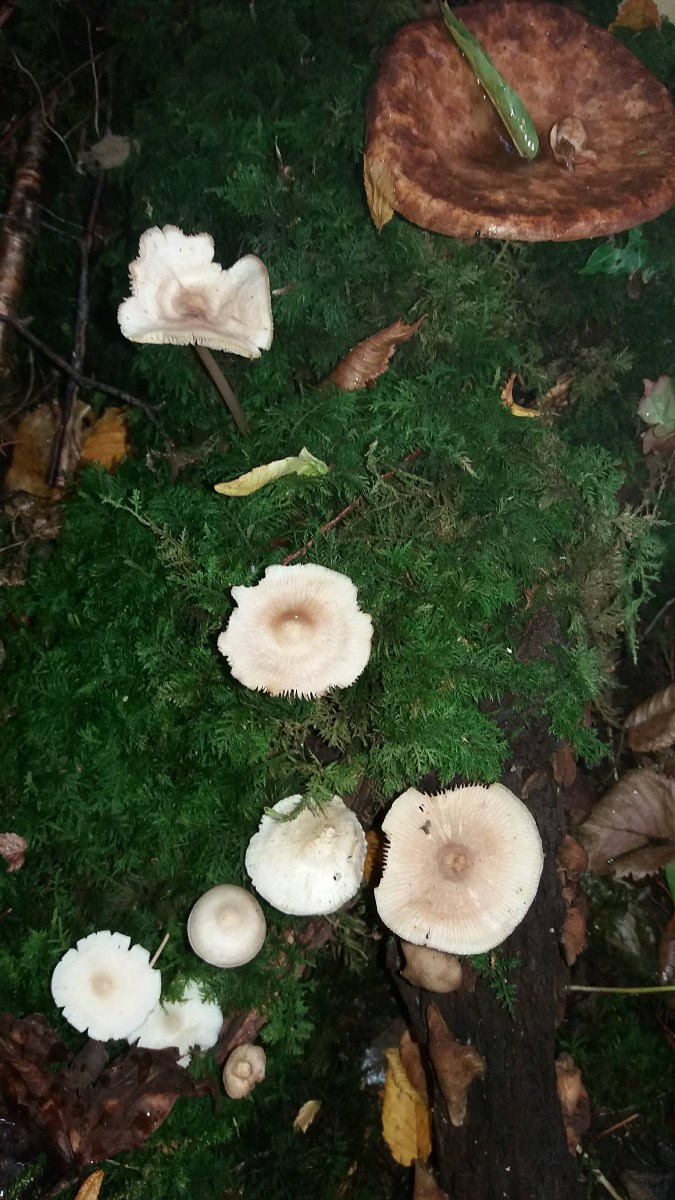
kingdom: Fungi
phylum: Basidiomycota
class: Agaricomycetes
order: Agaricales
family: Mycenaceae
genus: Mycena
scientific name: Mycena galericulata
